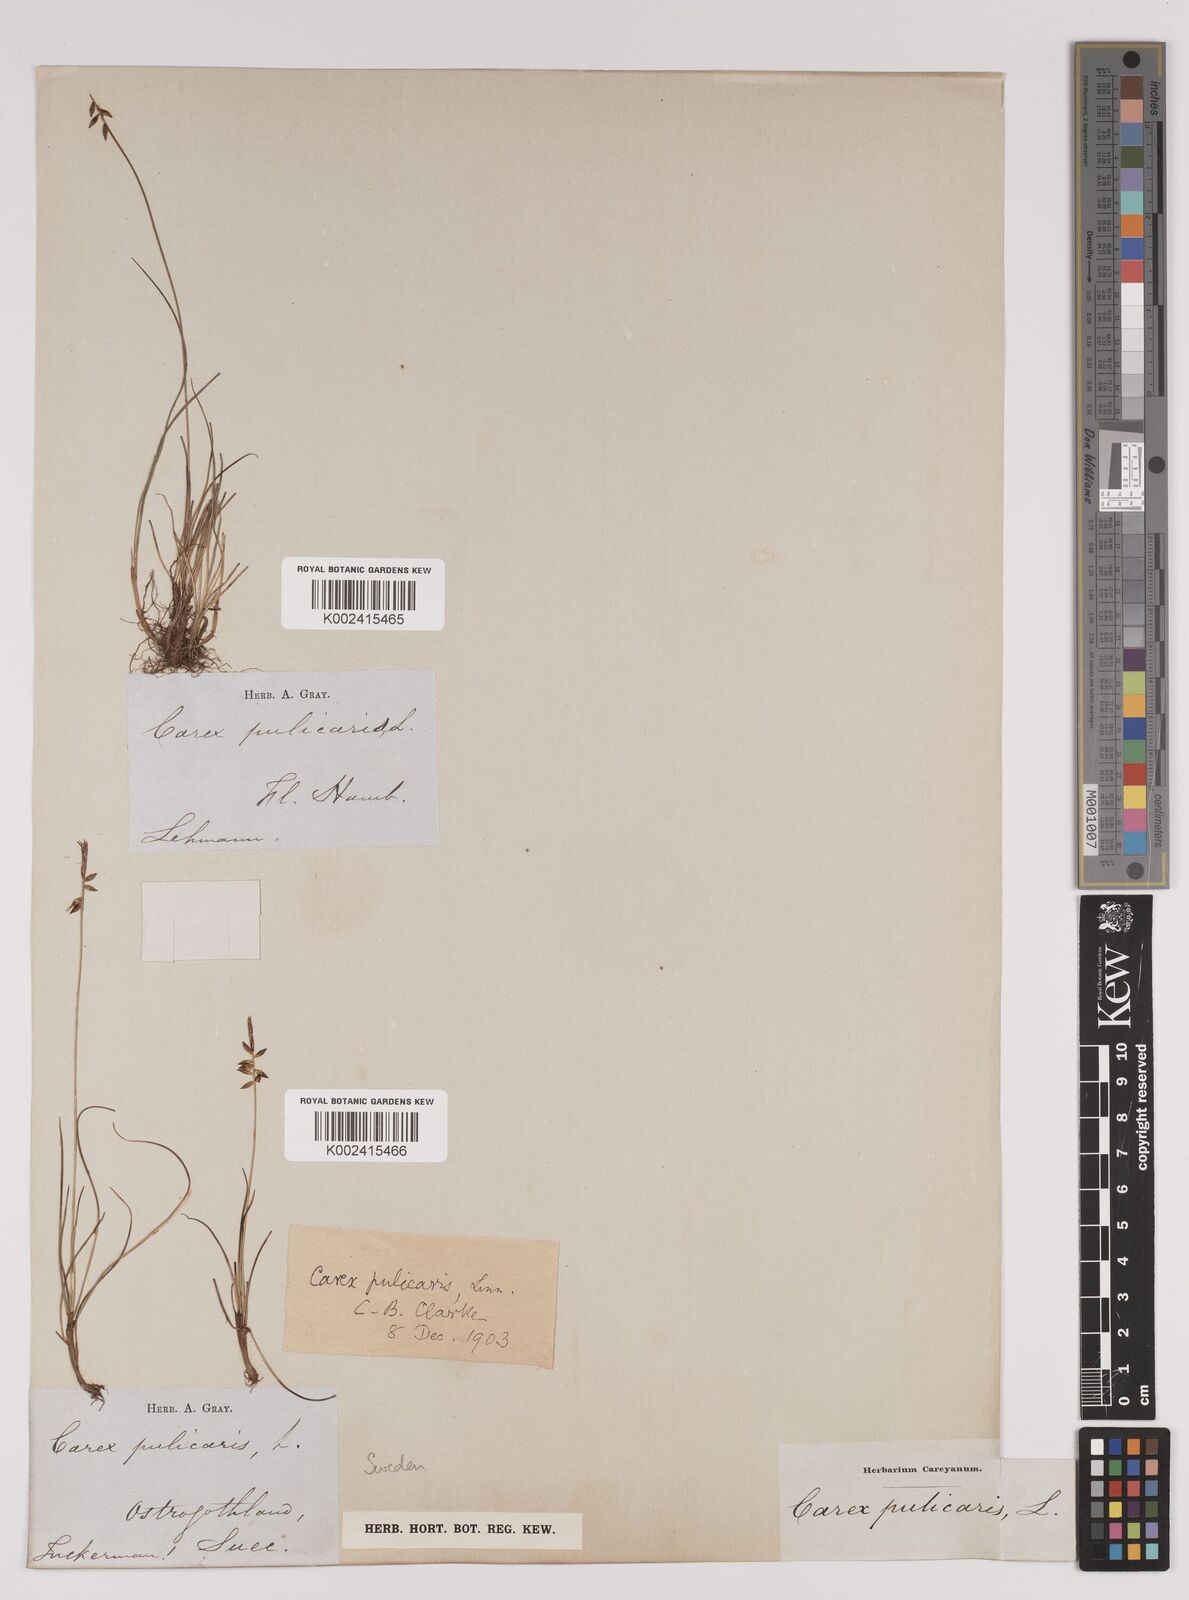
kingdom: Plantae
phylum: Tracheophyta
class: Liliopsida
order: Poales
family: Cyperaceae
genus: Carex
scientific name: Carex pulicaris
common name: Flea sedge
